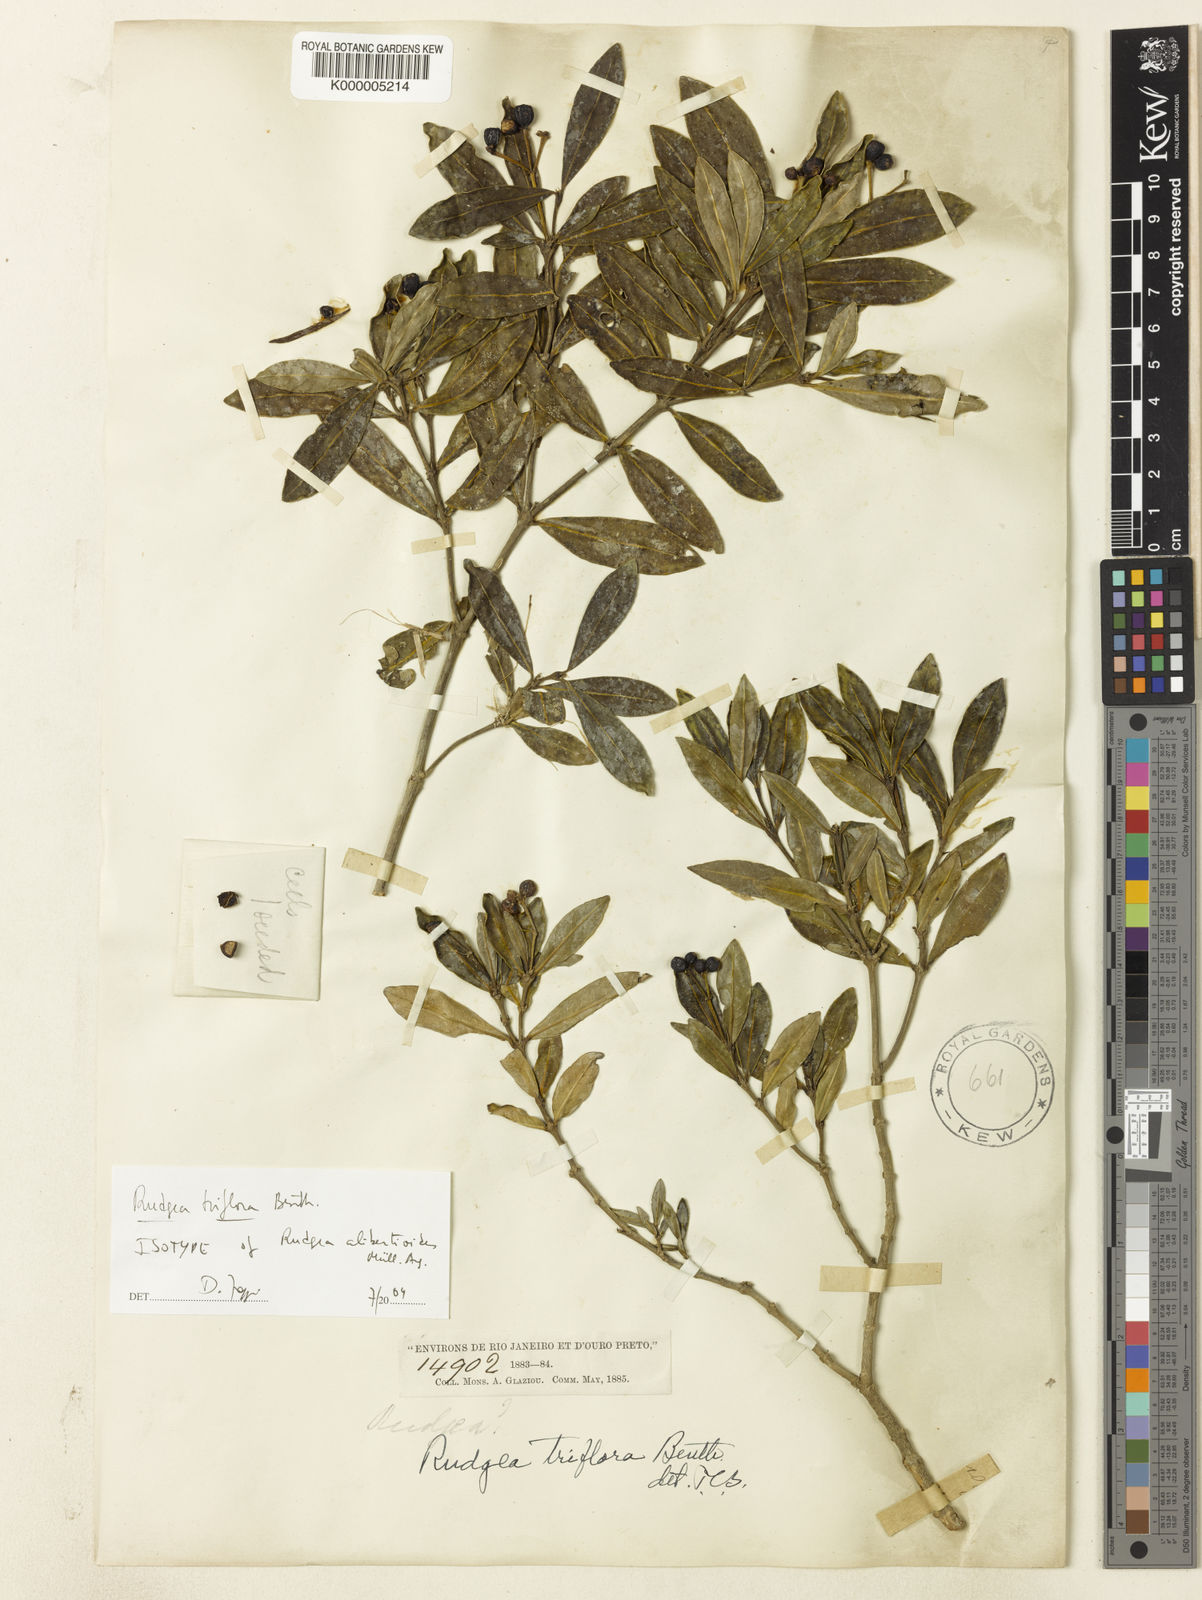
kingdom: Plantae
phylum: Tracheophyta
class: Magnoliopsida
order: Gentianales
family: Rubiaceae
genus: Rudgea
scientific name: Rudgea triflora
